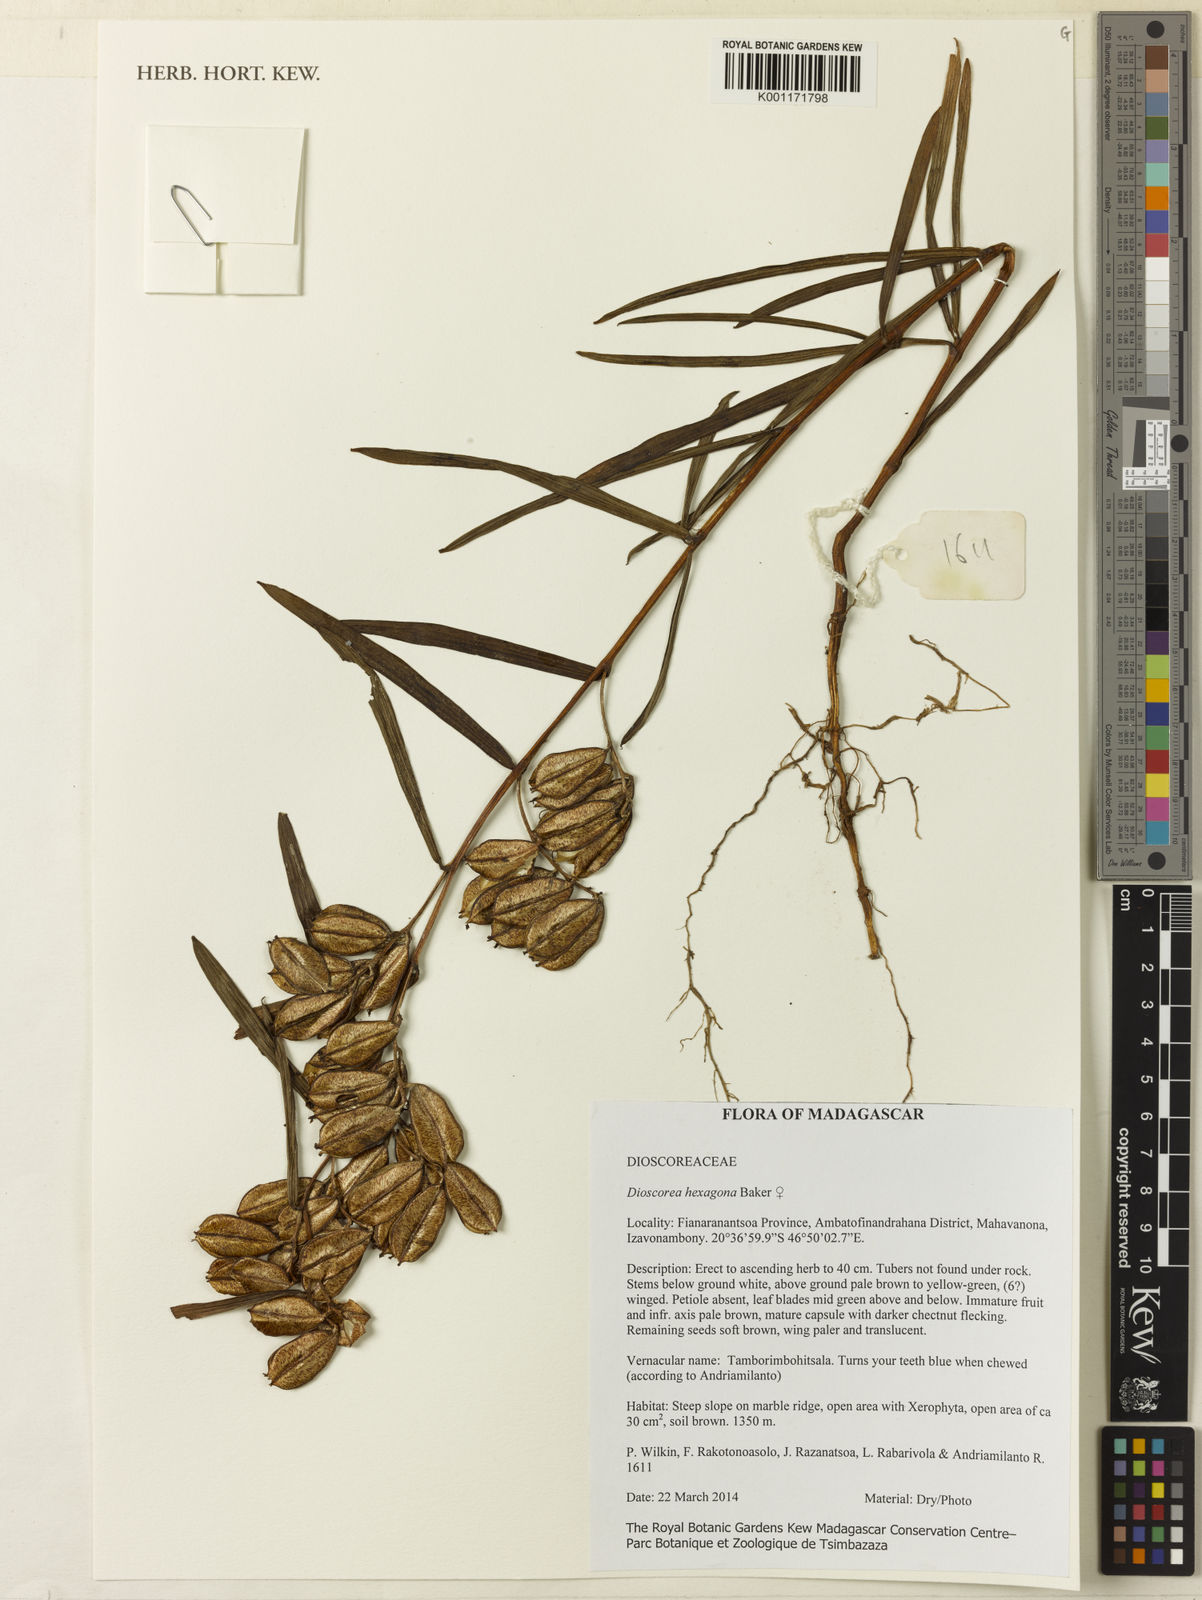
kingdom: Plantae
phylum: Tracheophyta
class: Liliopsida
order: Dioscoreales
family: Dioscoreaceae
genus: Dioscorea
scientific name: Dioscorea hexagona
